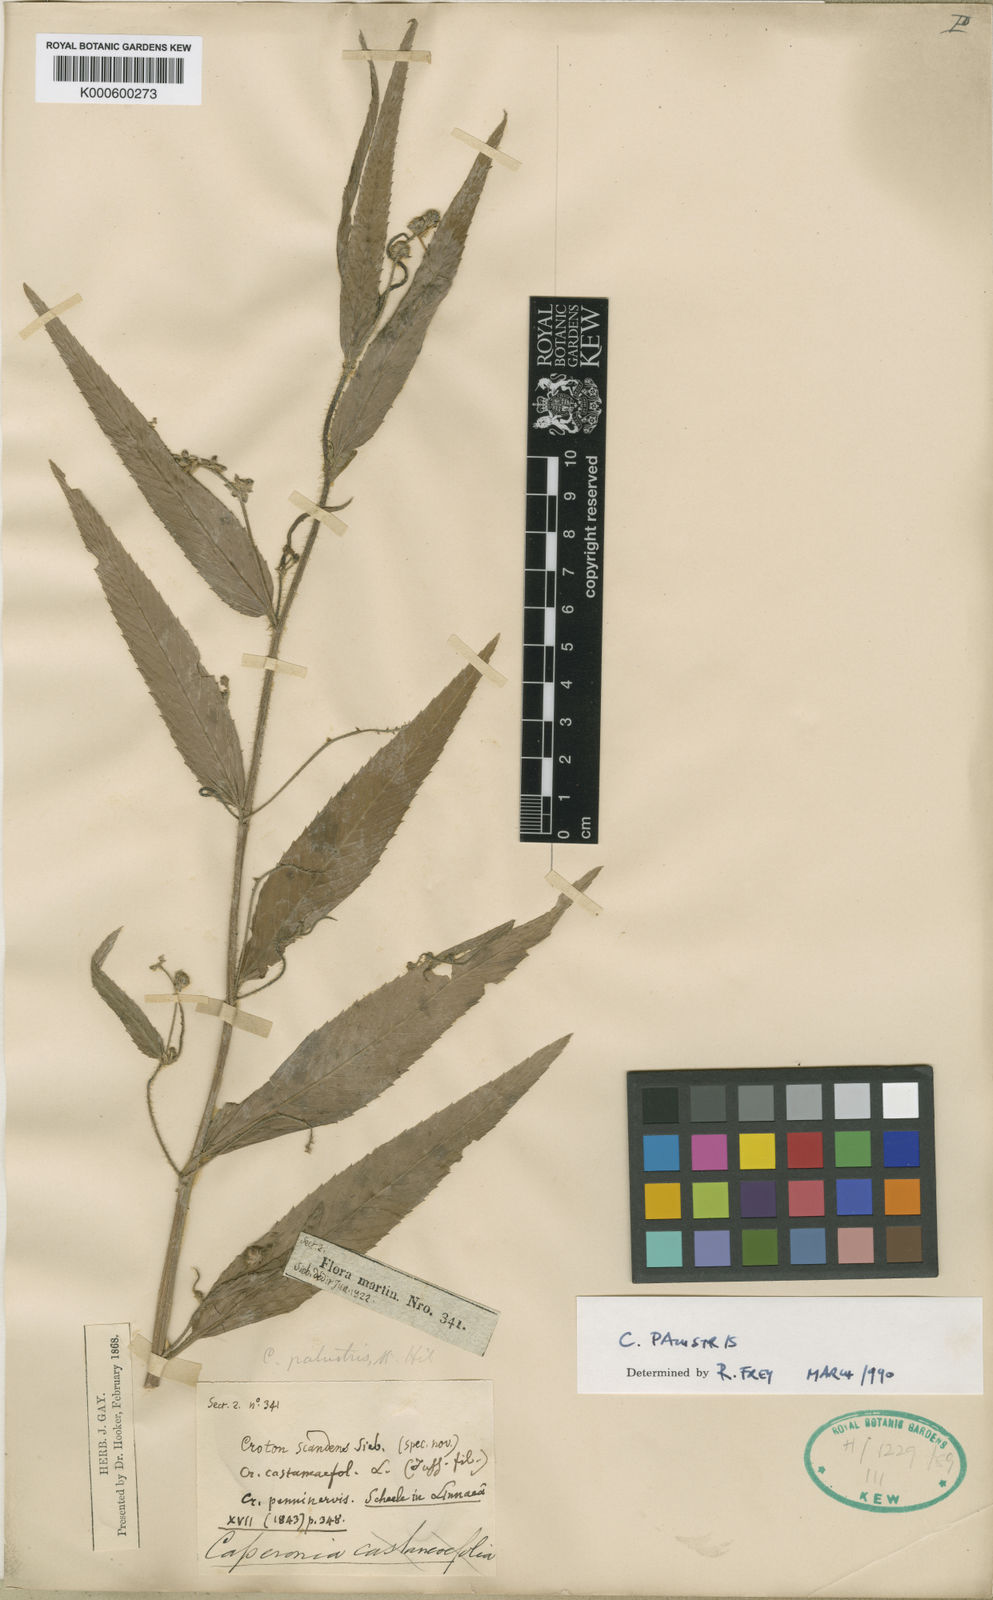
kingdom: Plantae
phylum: Tracheophyta
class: Magnoliopsida
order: Malpighiales
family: Euphorbiaceae
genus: Caperonia
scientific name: Caperonia palustris
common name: Sacatrapo
